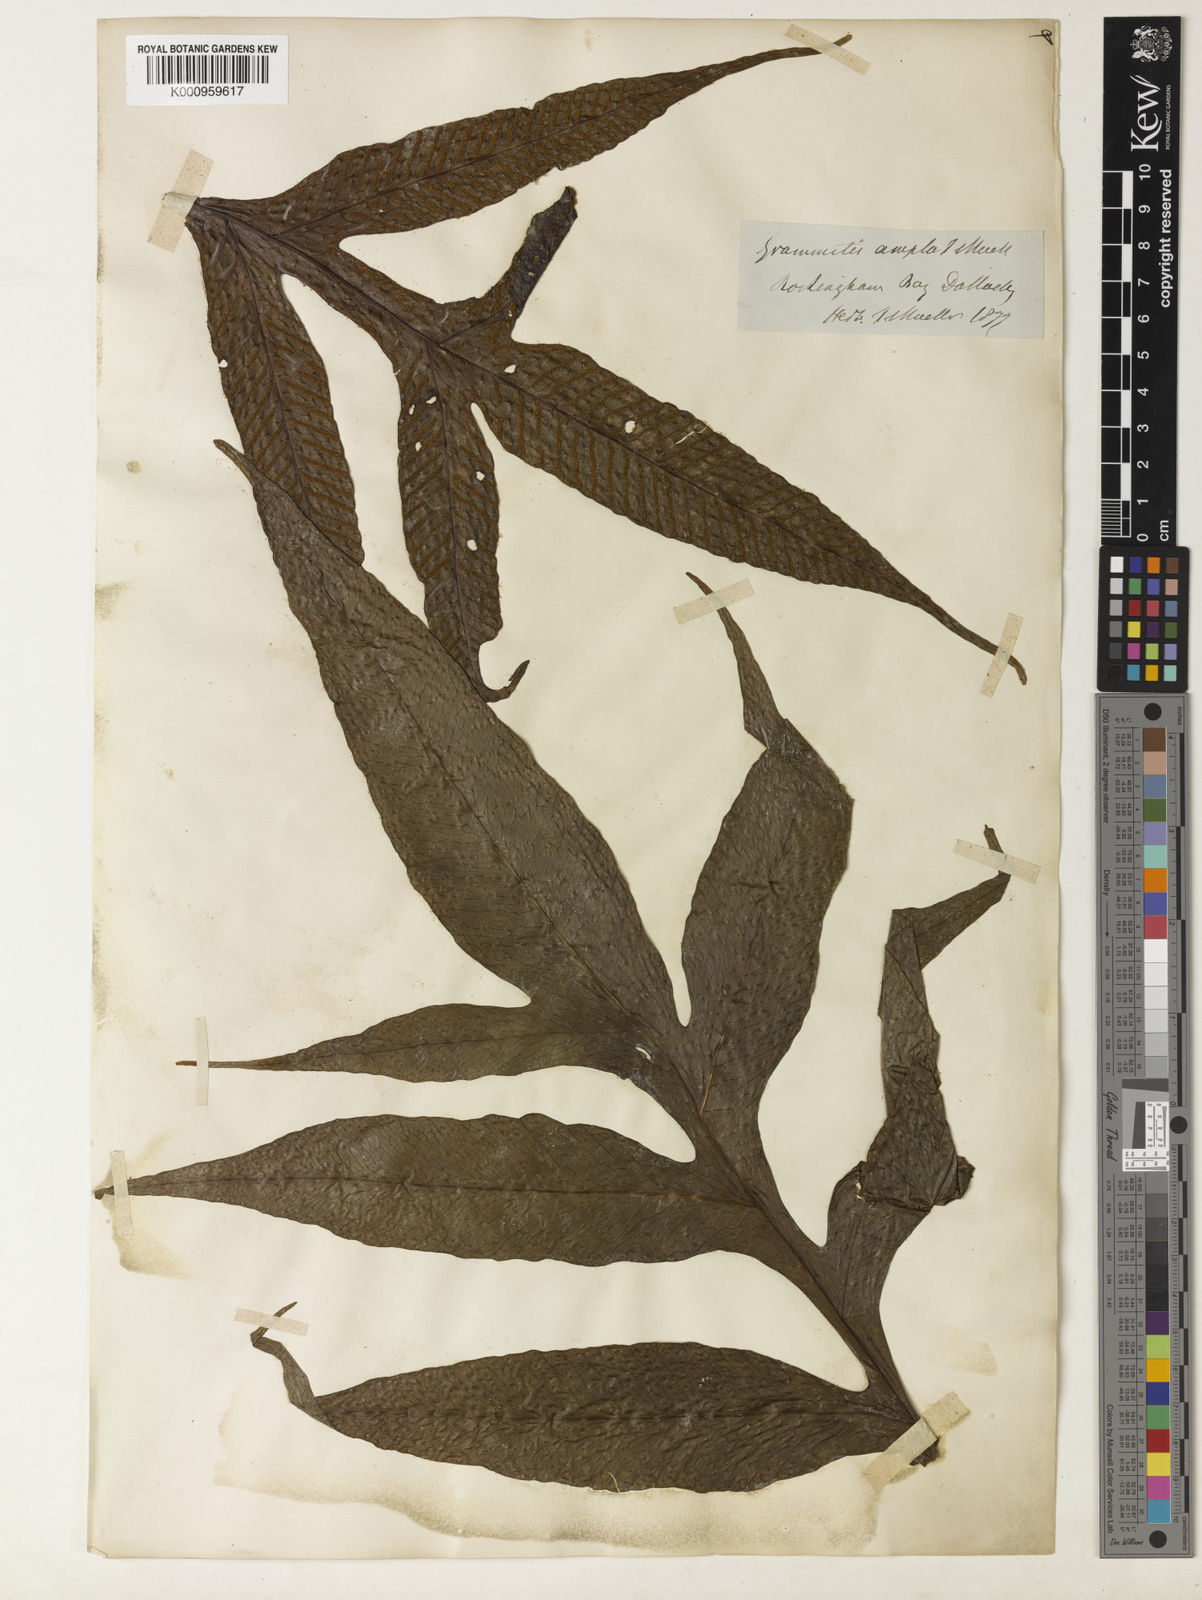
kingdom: Plantae
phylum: Tracheophyta
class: Polypodiopsida
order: Polypodiales
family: Polypodiaceae
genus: Lecanopteris
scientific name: Lecanopteris ampla
